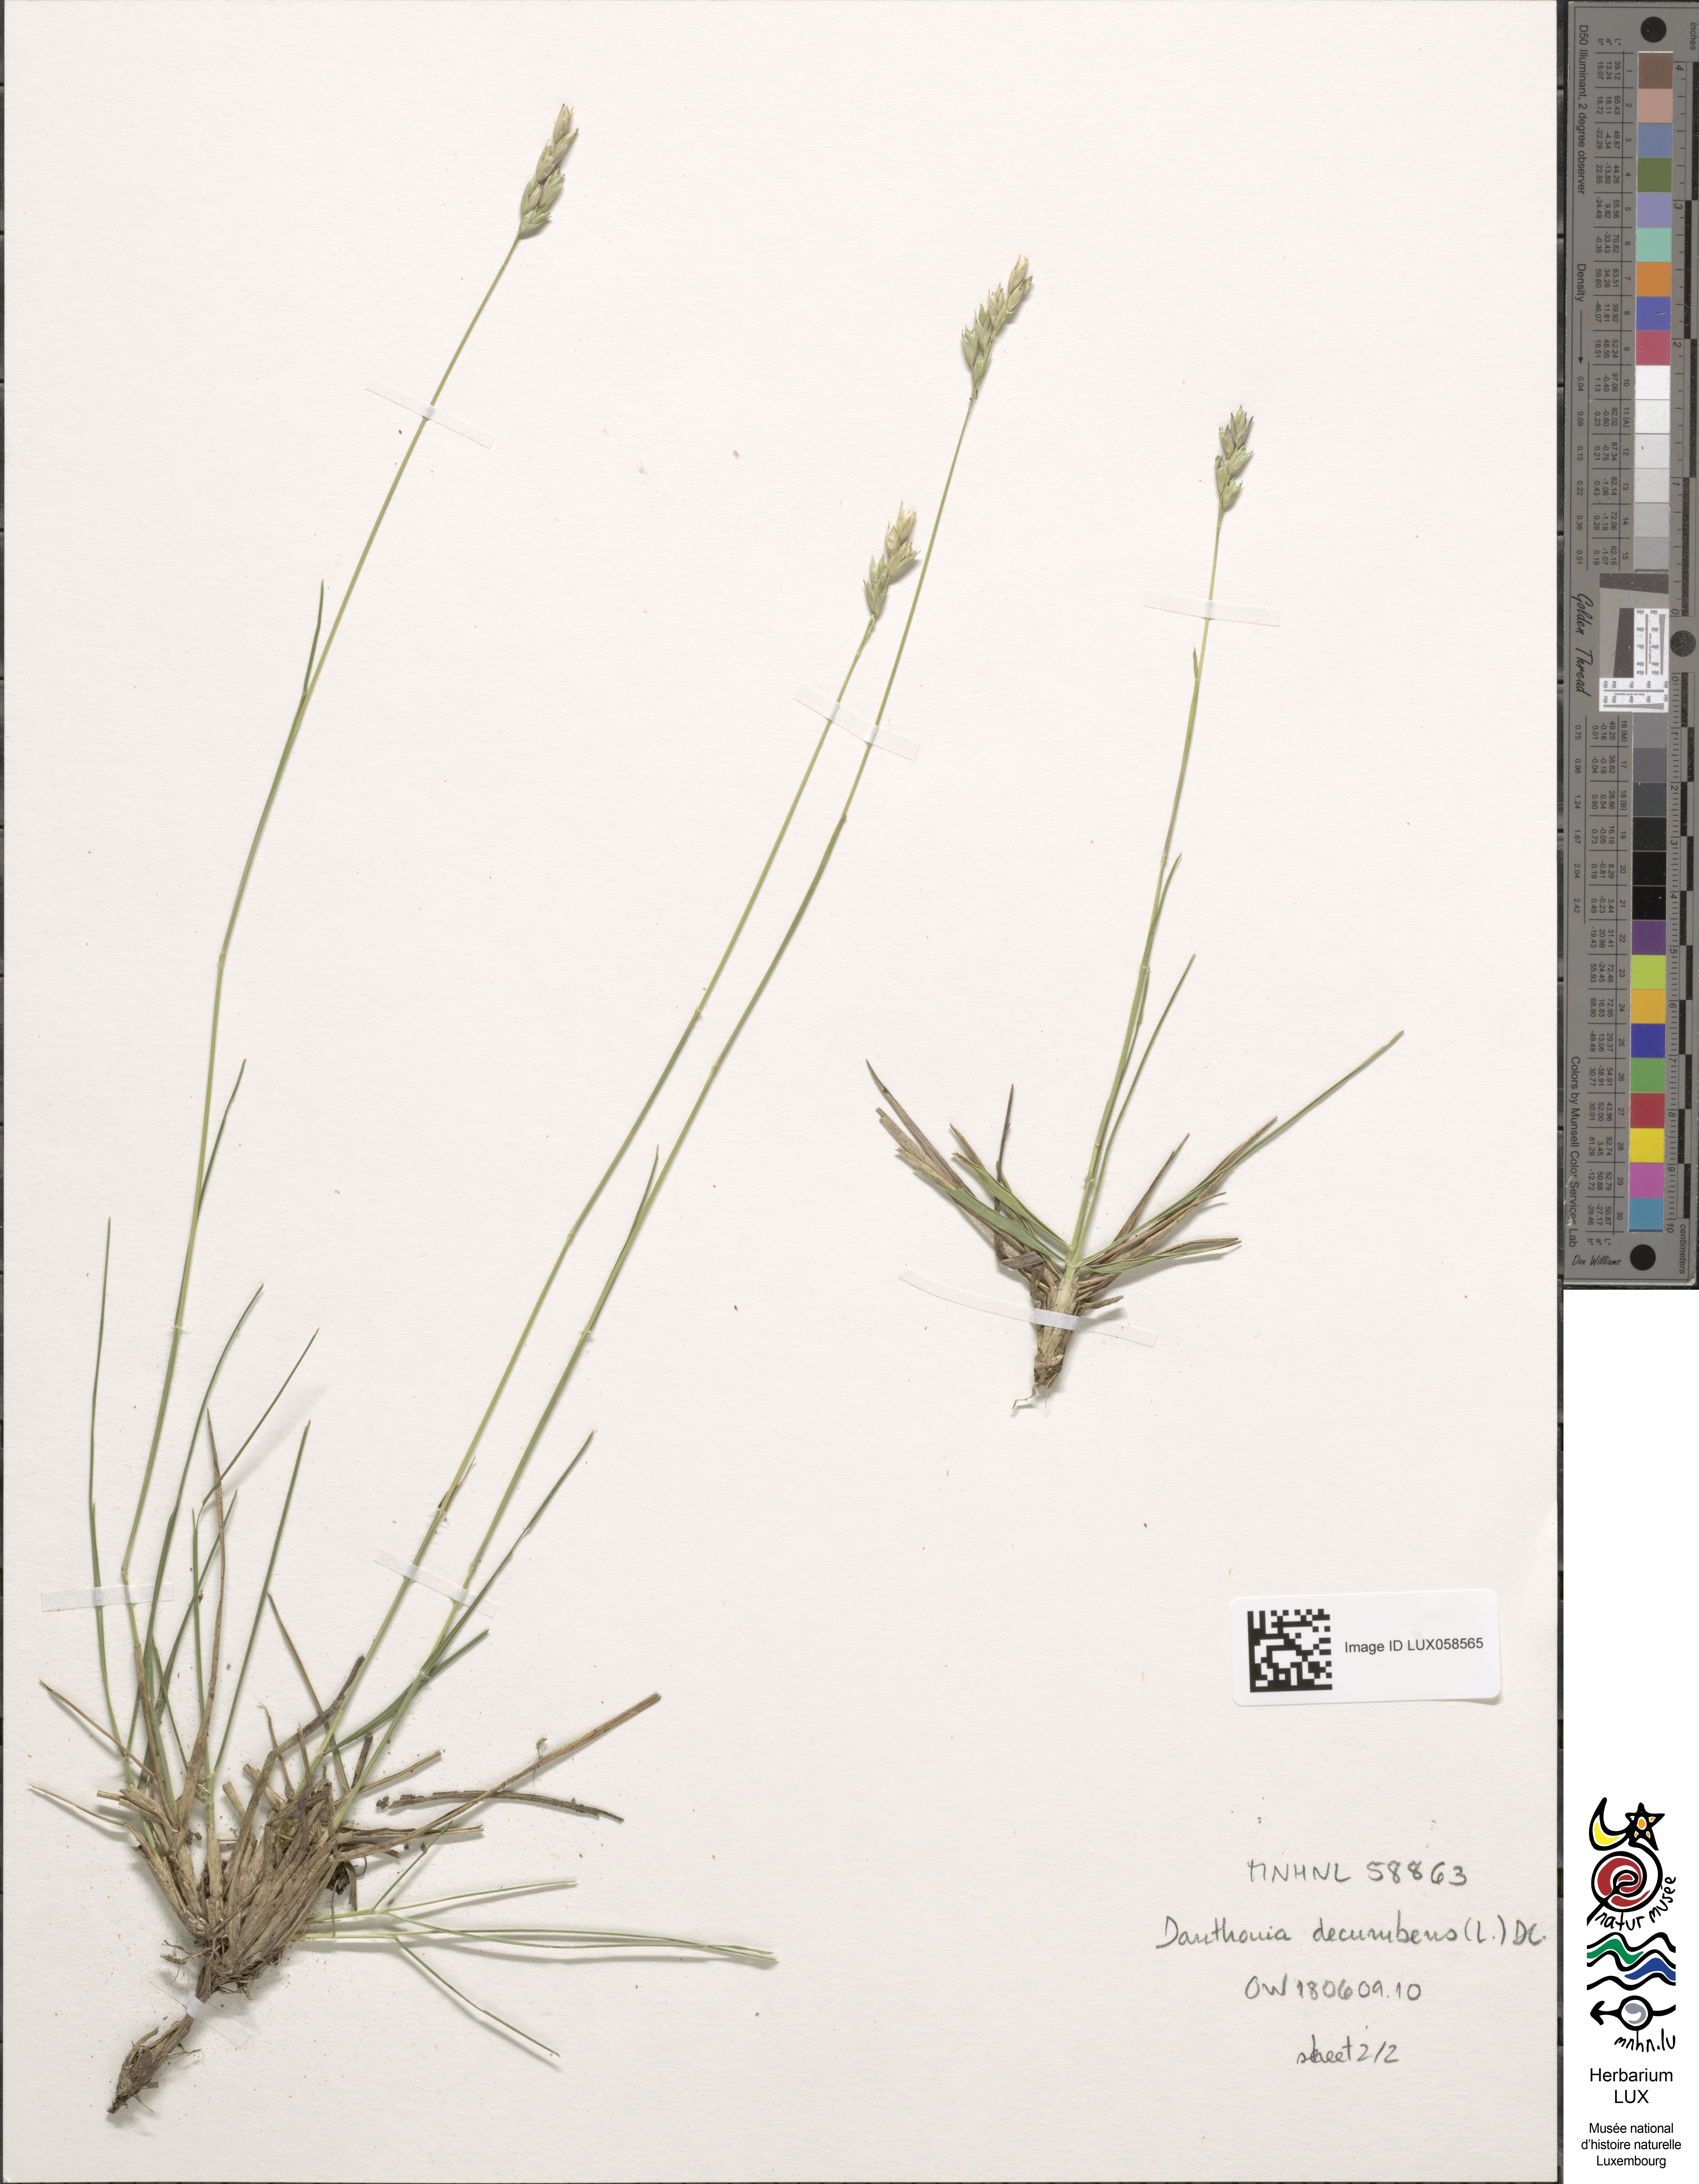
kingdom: Plantae
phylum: Tracheophyta
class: Liliopsida
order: Poales
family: Poaceae
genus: Danthonia
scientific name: Danthonia decumbens
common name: Common heathgrass
